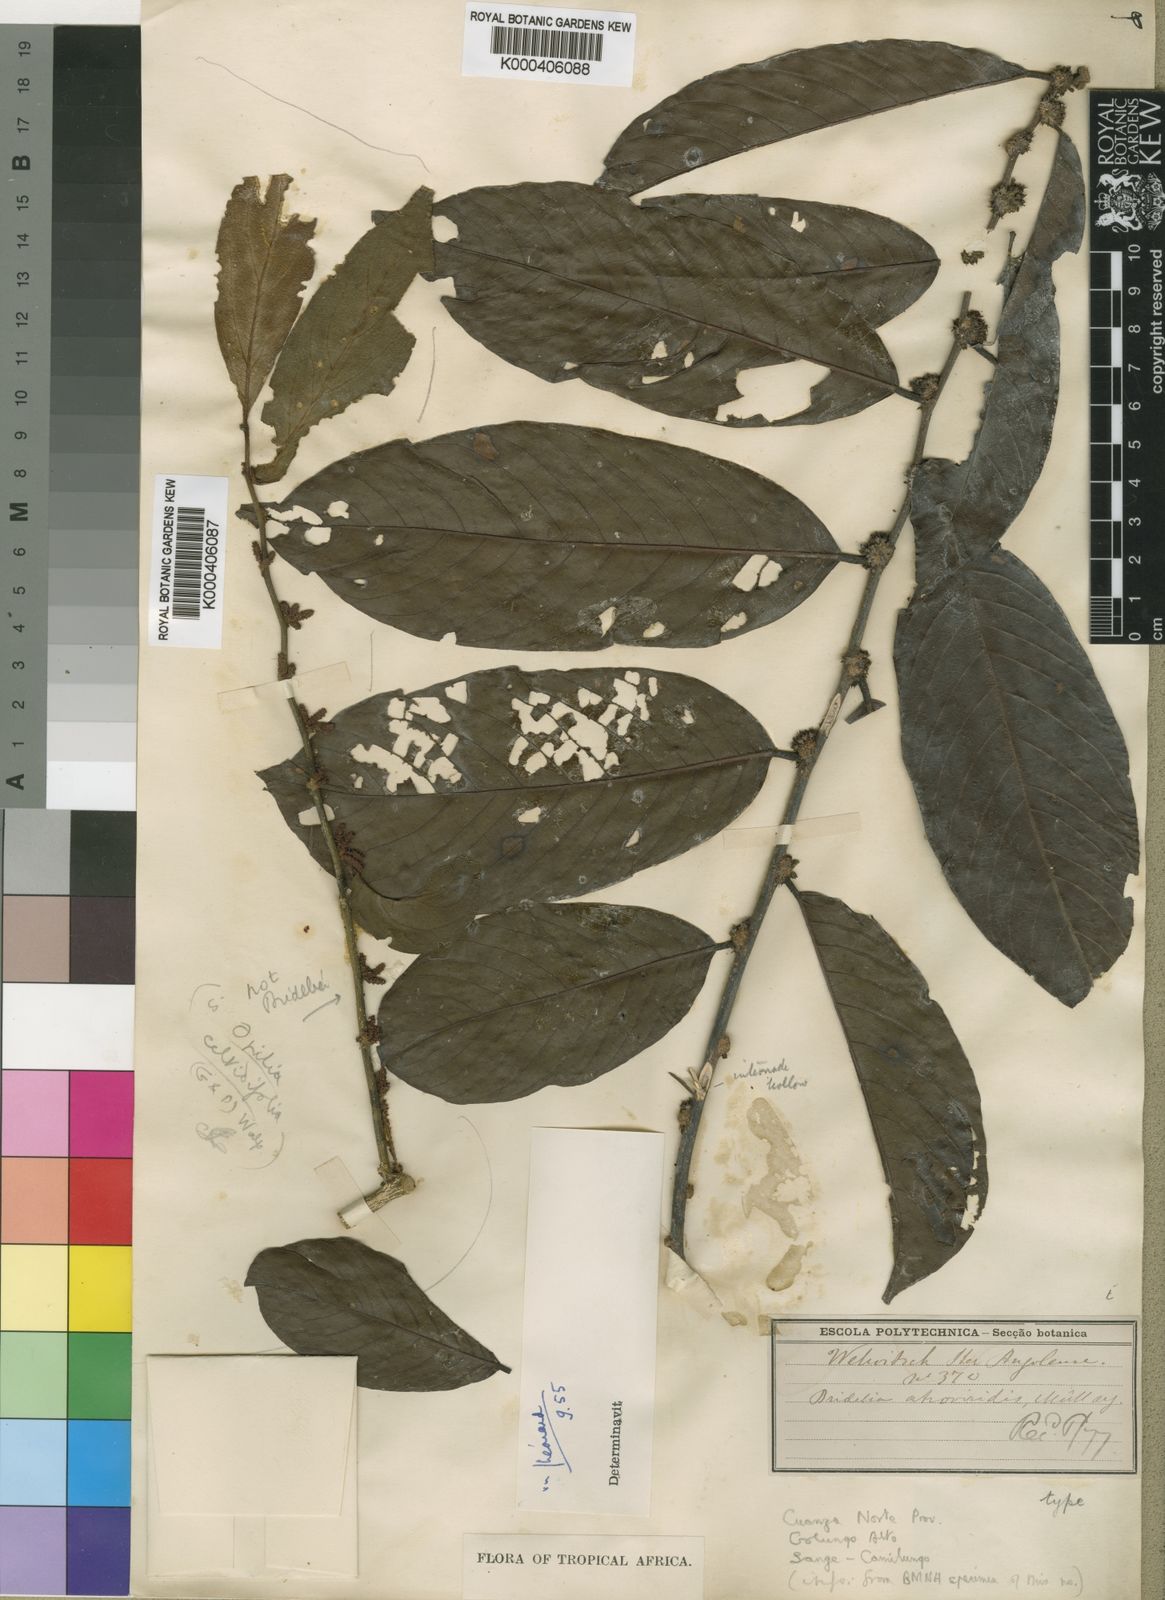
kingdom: Plantae
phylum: Tracheophyta
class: Magnoliopsida
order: Malpighiales
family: Phyllanthaceae
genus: Bridelia
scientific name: Bridelia
